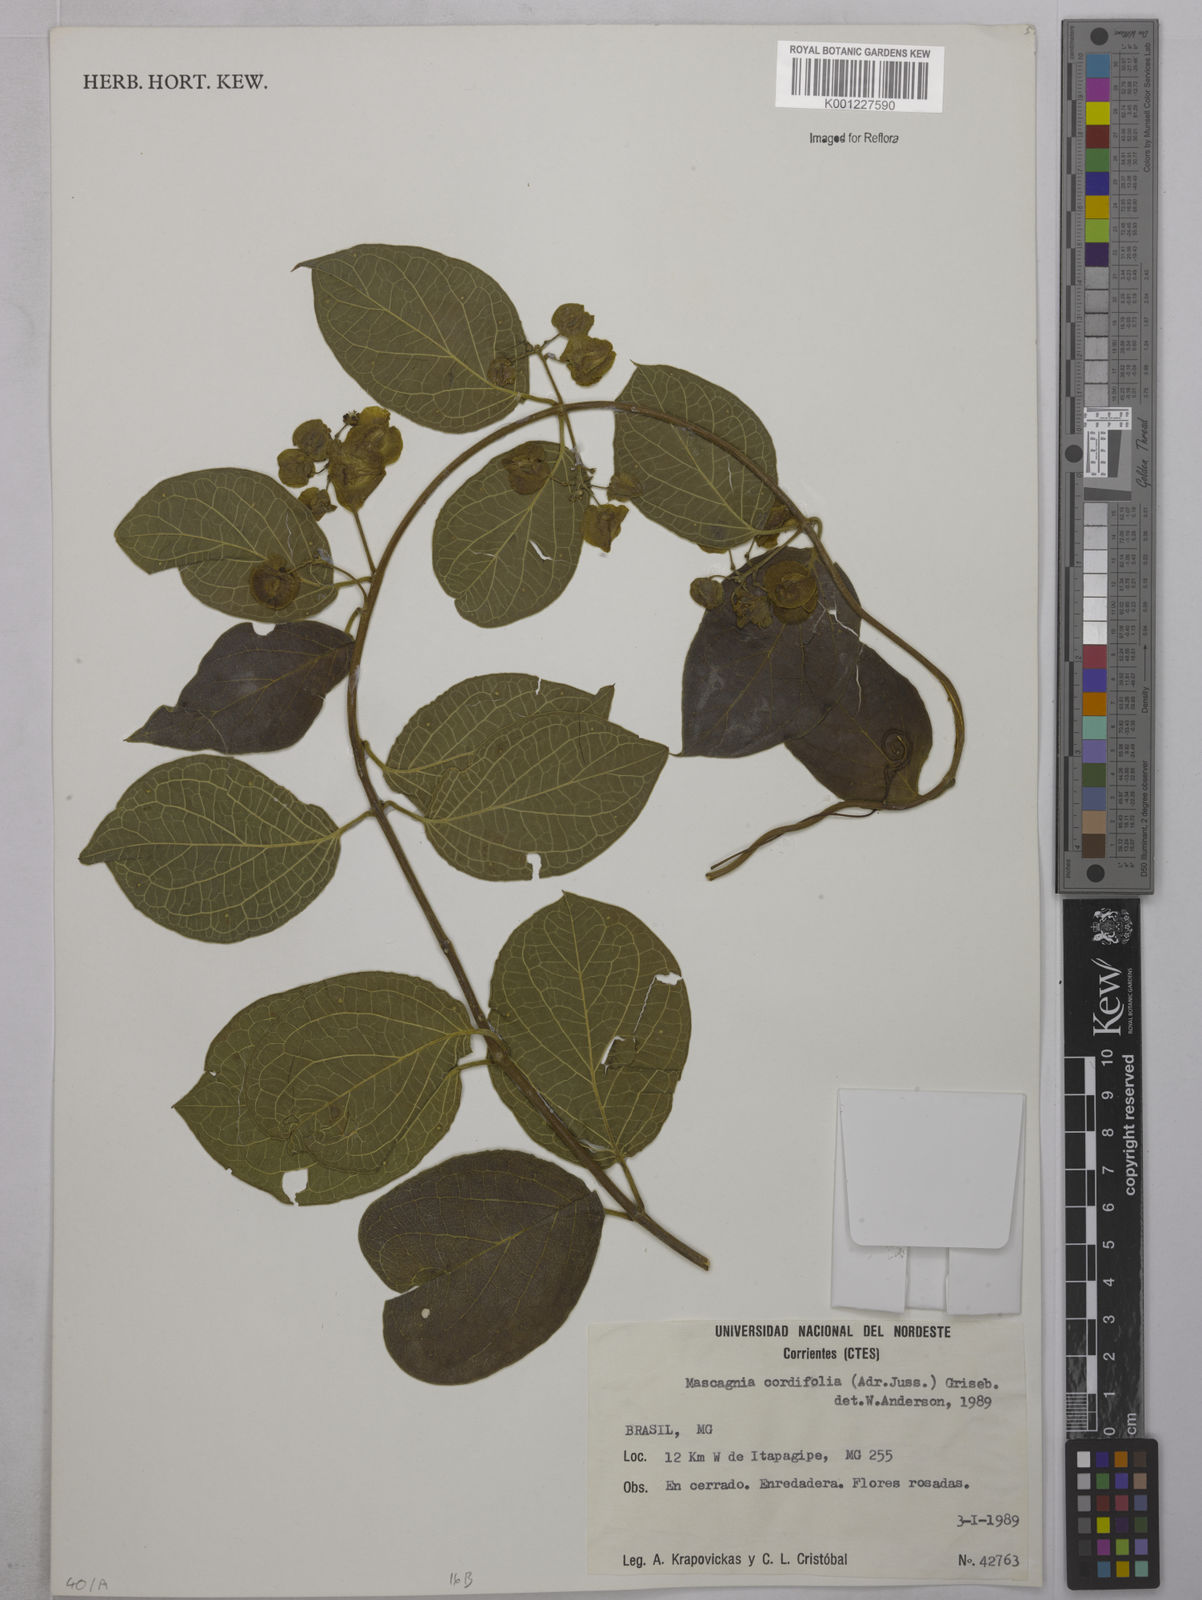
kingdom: Plantae
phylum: Tracheophyta
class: Magnoliopsida
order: Malpighiales
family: Malpighiaceae
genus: Mascagnia
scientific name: Mascagnia cordifolia
